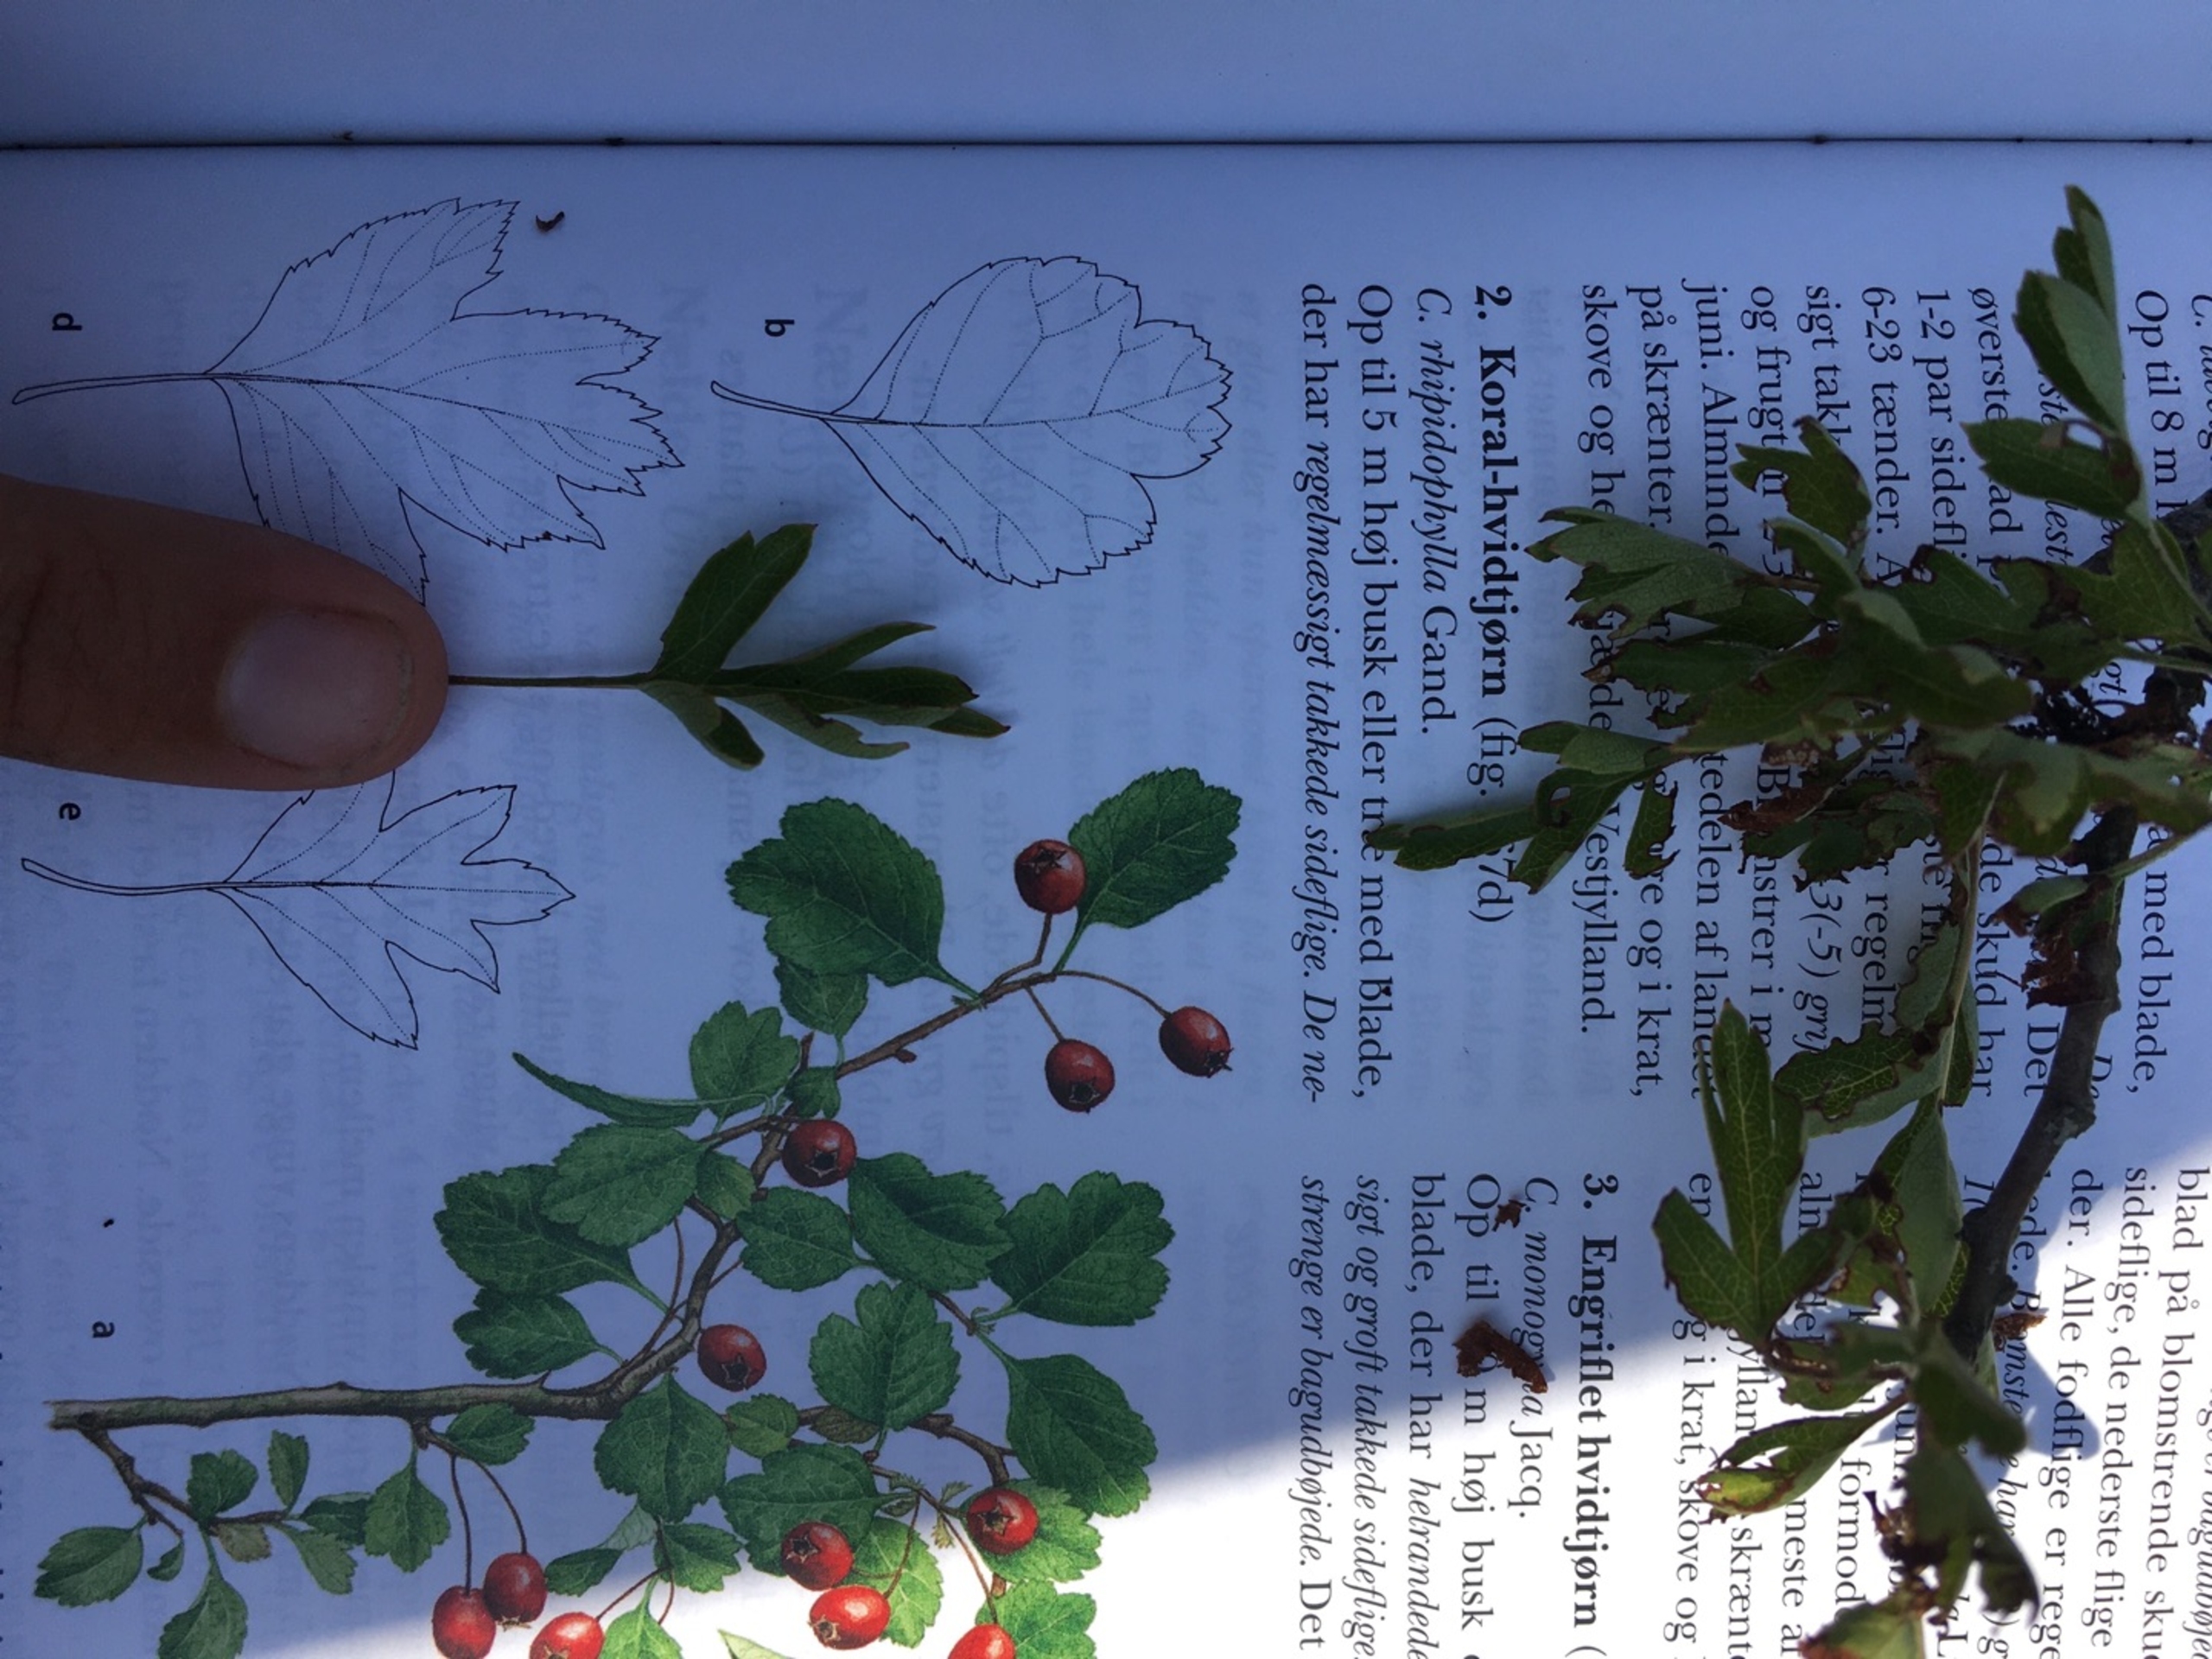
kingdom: Plantae
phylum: Tracheophyta
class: Magnoliopsida
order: Rosales
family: Rosaceae
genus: Crataegus
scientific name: Crataegus monogyna
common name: Engriflet hvidtjørn
